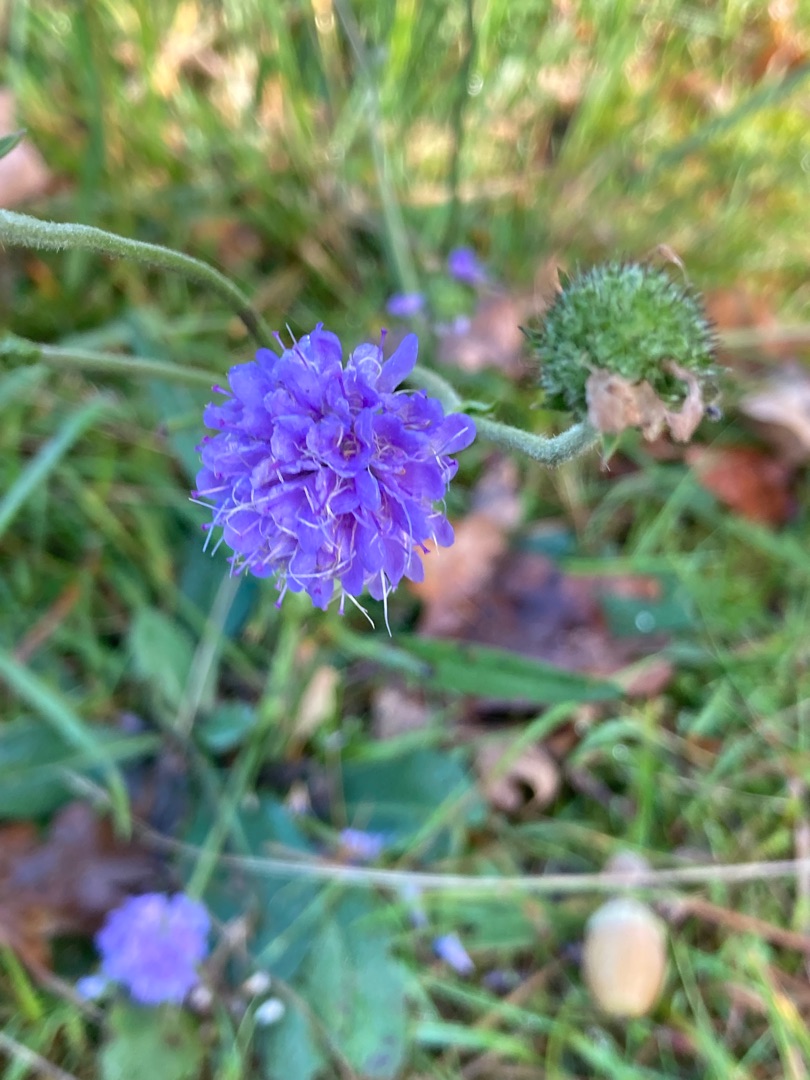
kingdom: Plantae
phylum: Tracheophyta
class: Magnoliopsida
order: Dipsacales
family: Caprifoliaceae
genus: Succisa
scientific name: Succisa pratensis
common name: Djævelsbid
